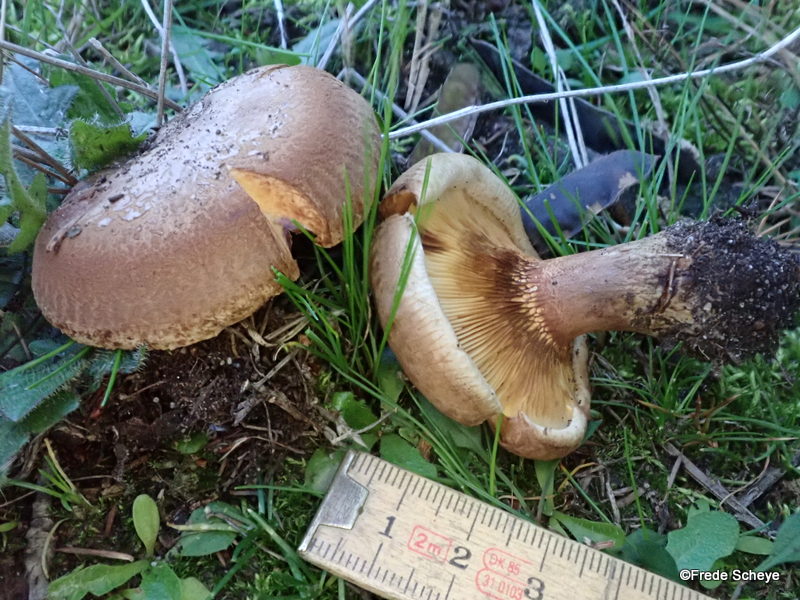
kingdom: Fungi
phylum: Basidiomycota
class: Agaricomycetes
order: Boletales
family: Paxillaceae
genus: Paxillus
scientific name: Paxillus involutus
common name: almindelig netbladhat
